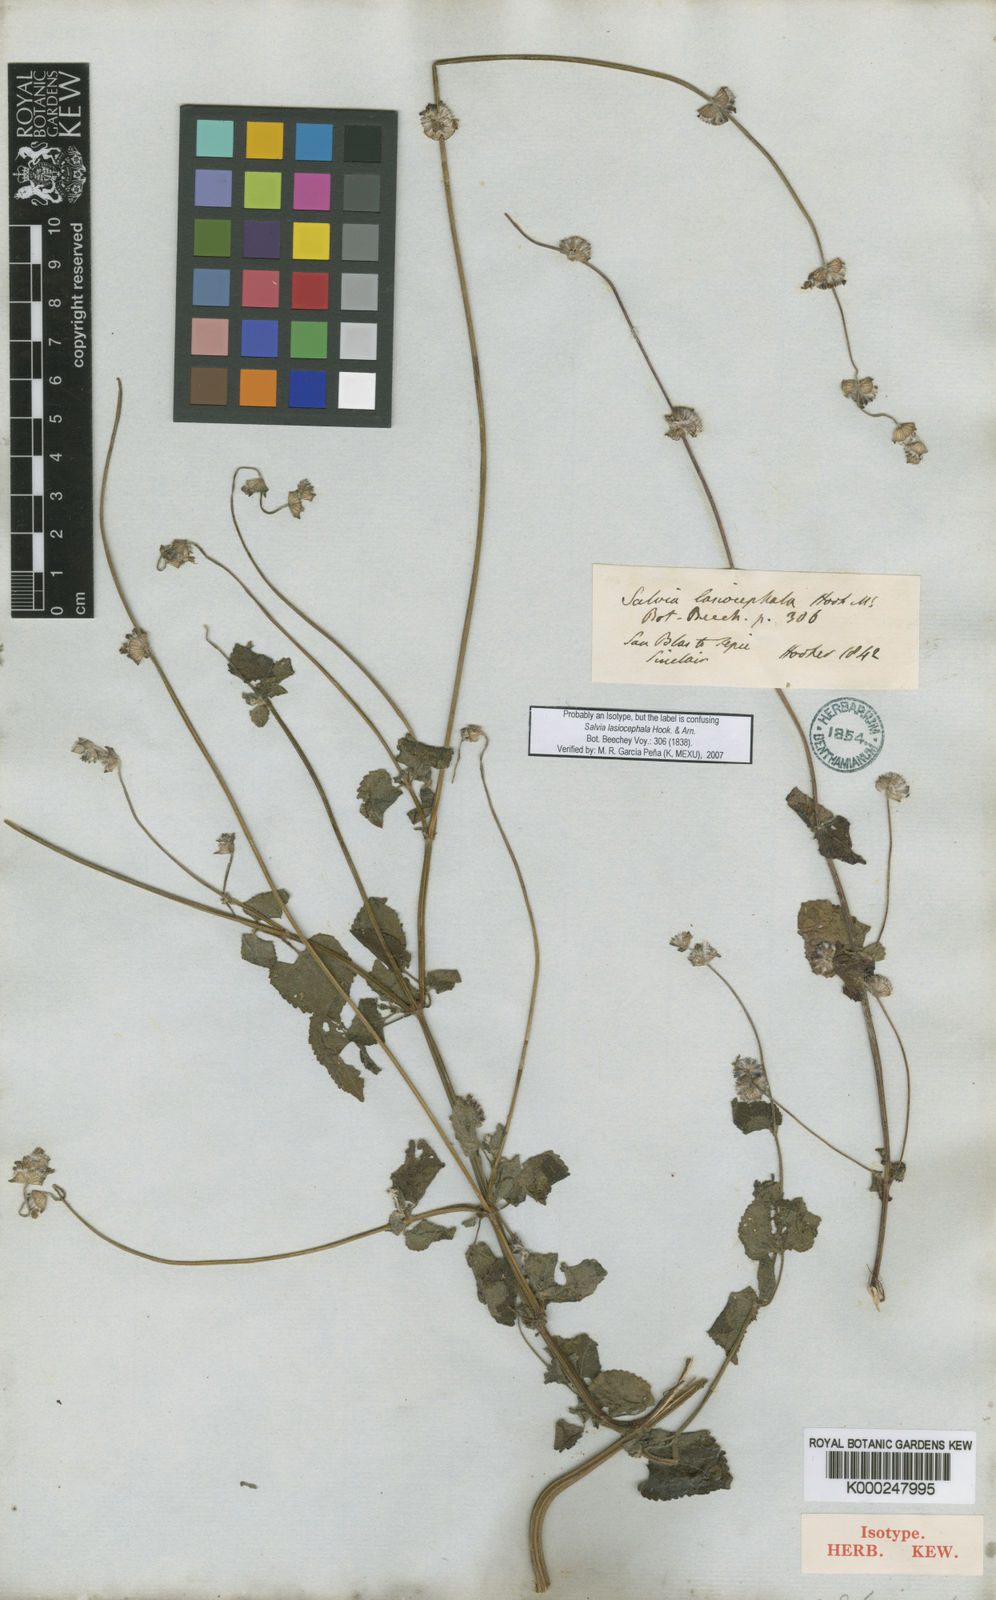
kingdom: Plantae
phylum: Tracheophyta
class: Magnoliopsida
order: Lamiales
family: Lamiaceae
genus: Salvia
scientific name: Salvia lasiocephala
